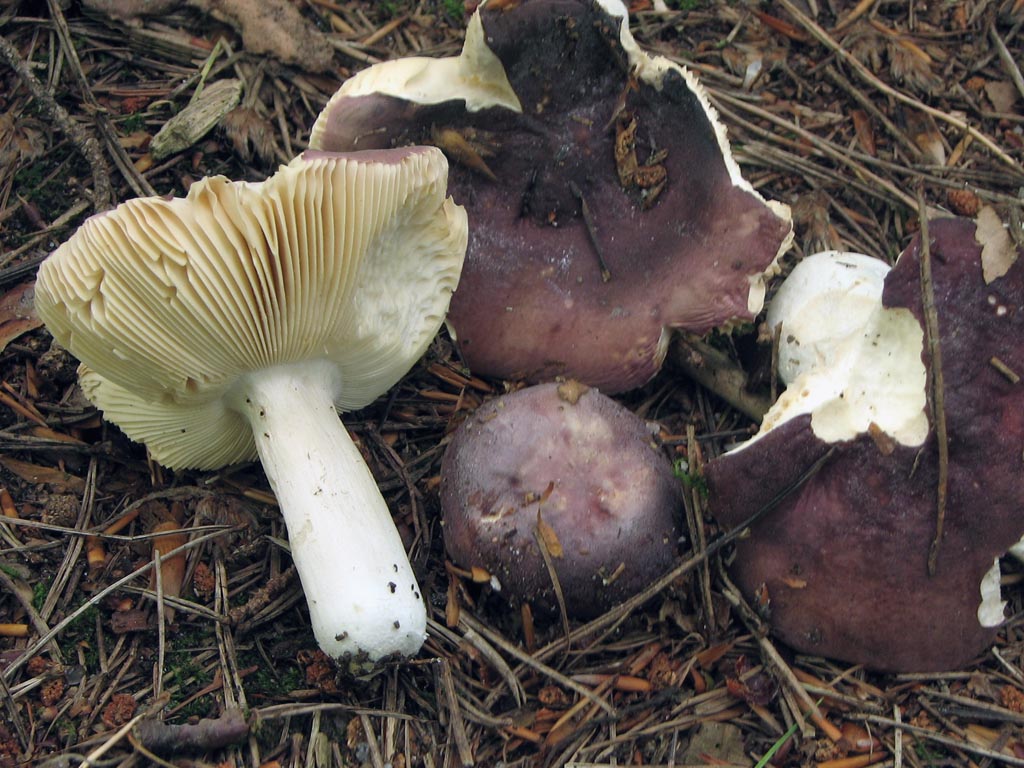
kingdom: Fungi
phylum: Basidiomycota
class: Agaricomycetes
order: Russulales
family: Russulaceae
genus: Russula
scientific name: Russula turci
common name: jod-skørhat
